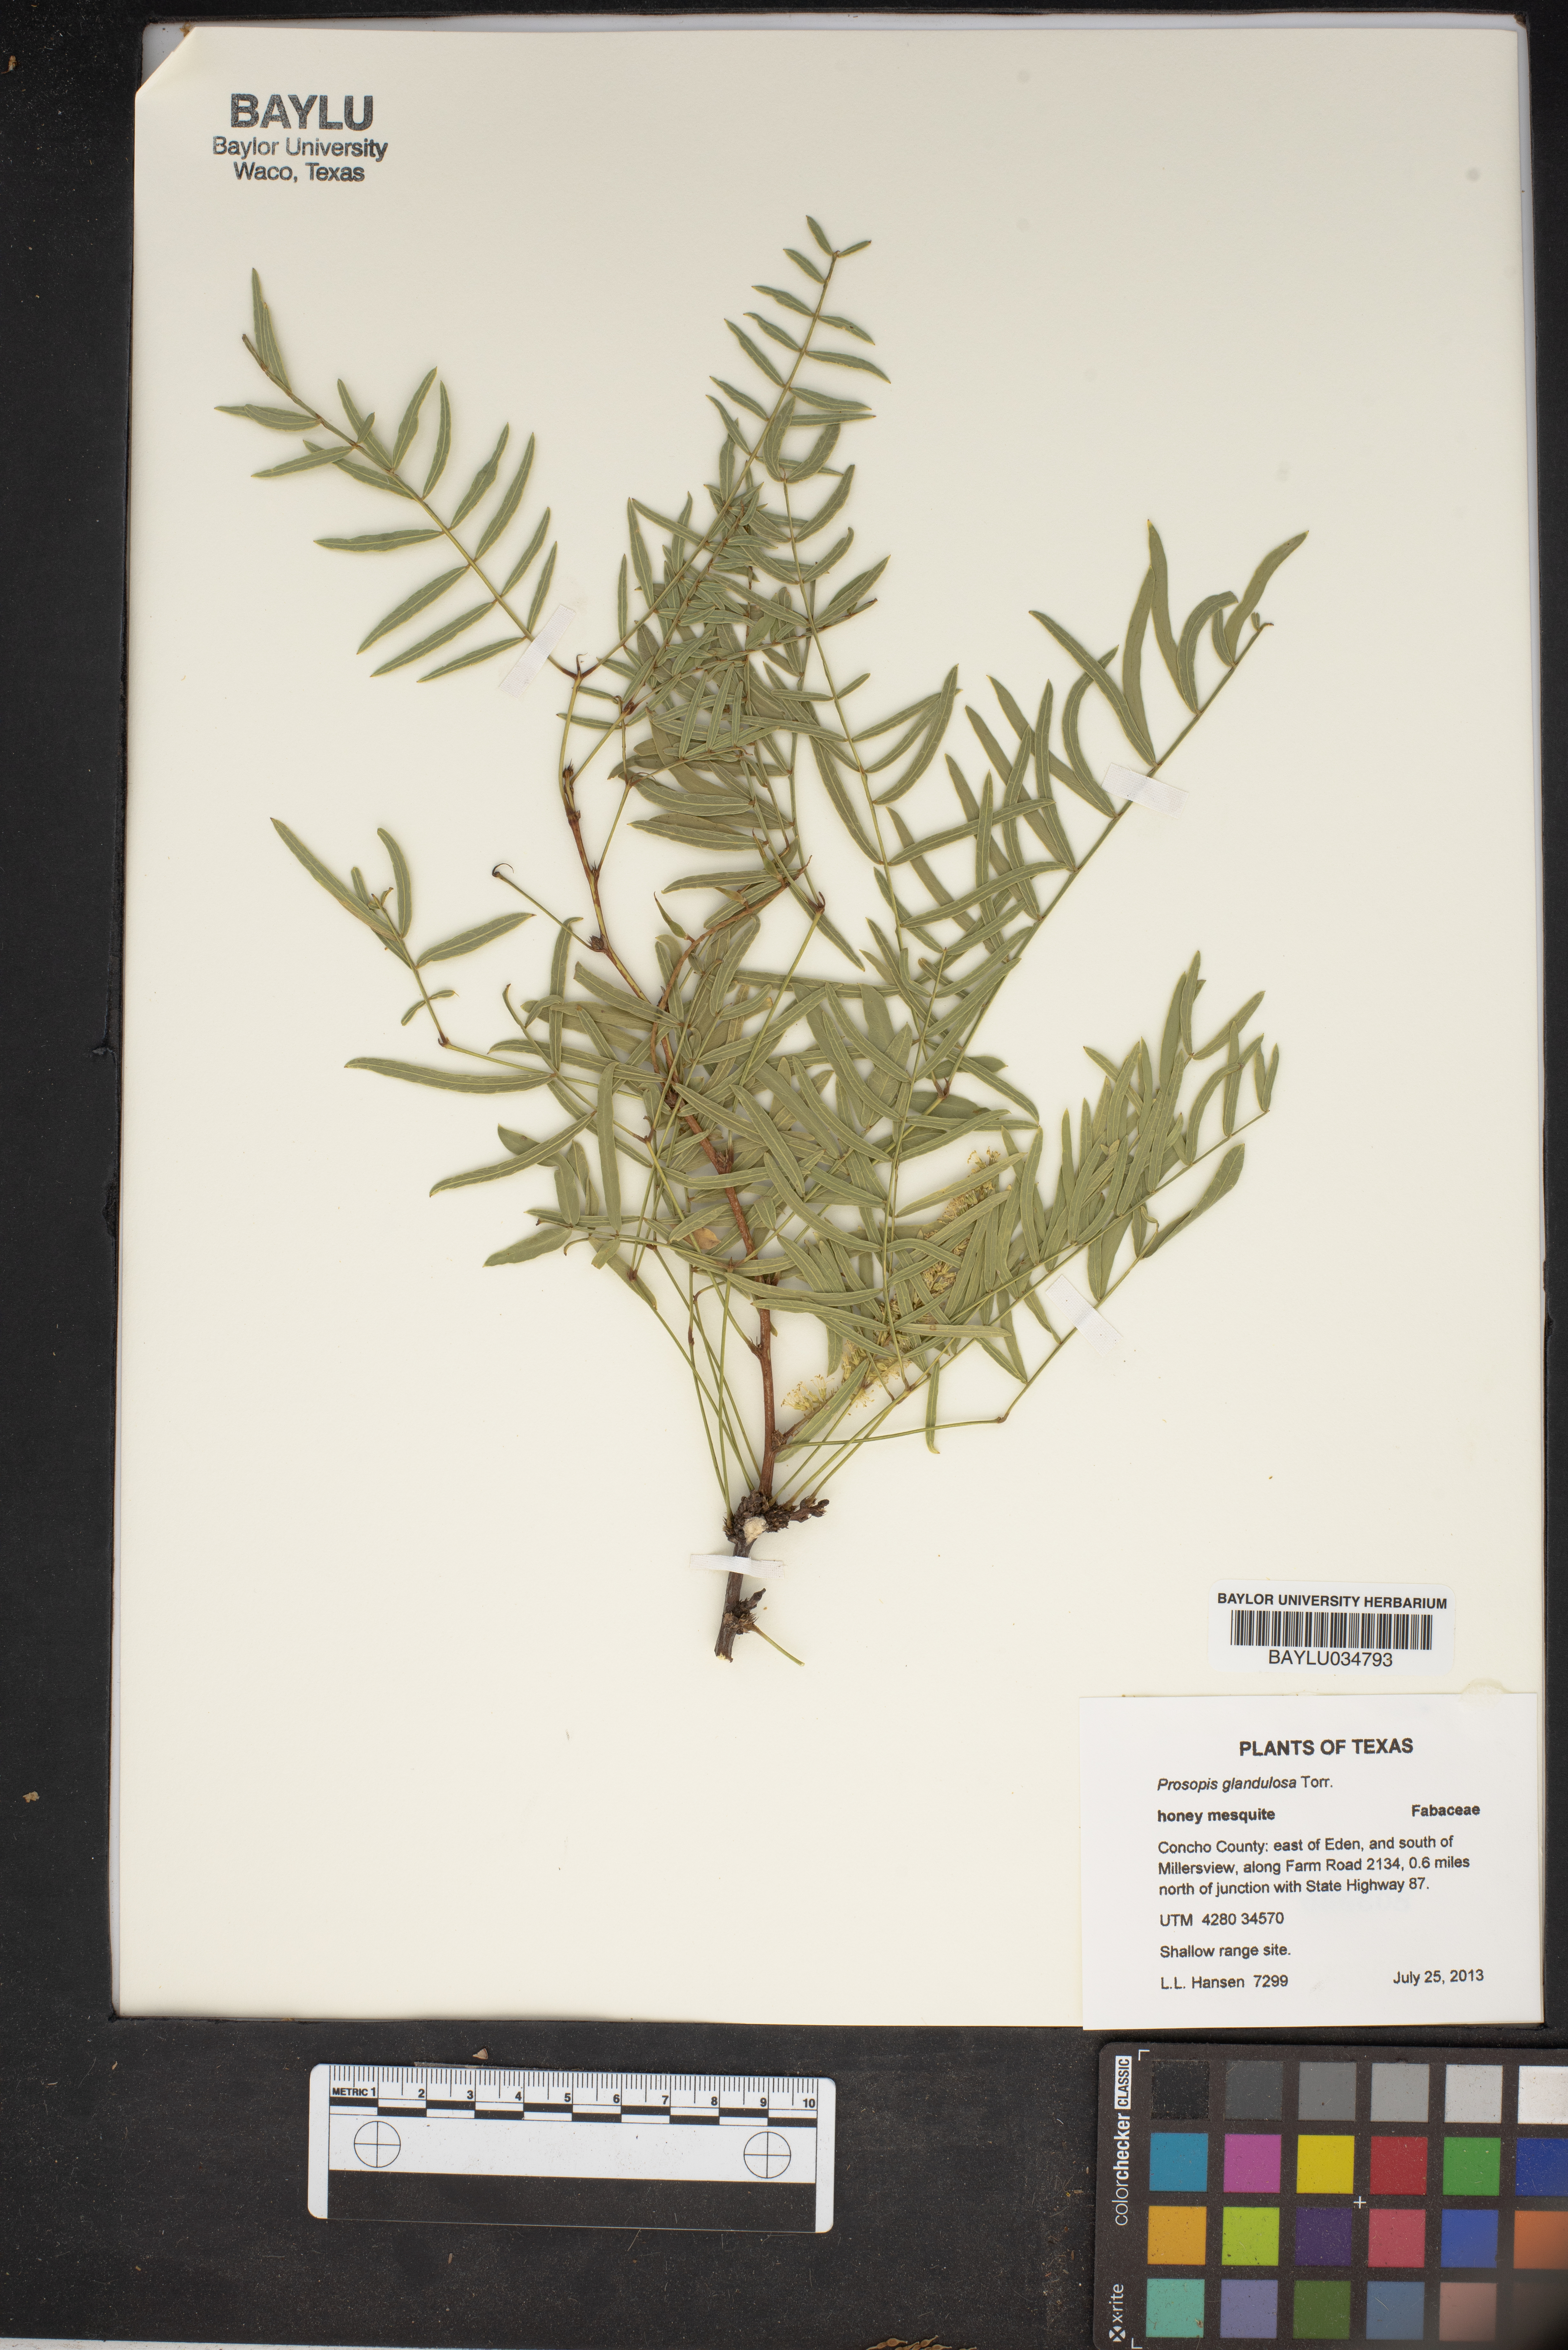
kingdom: Plantae
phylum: Tracheophyta
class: Magnoliopsida
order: Fabales
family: Fabaceae
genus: Prosopis
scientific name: Prosopis glandulosa
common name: Honey mesquite
